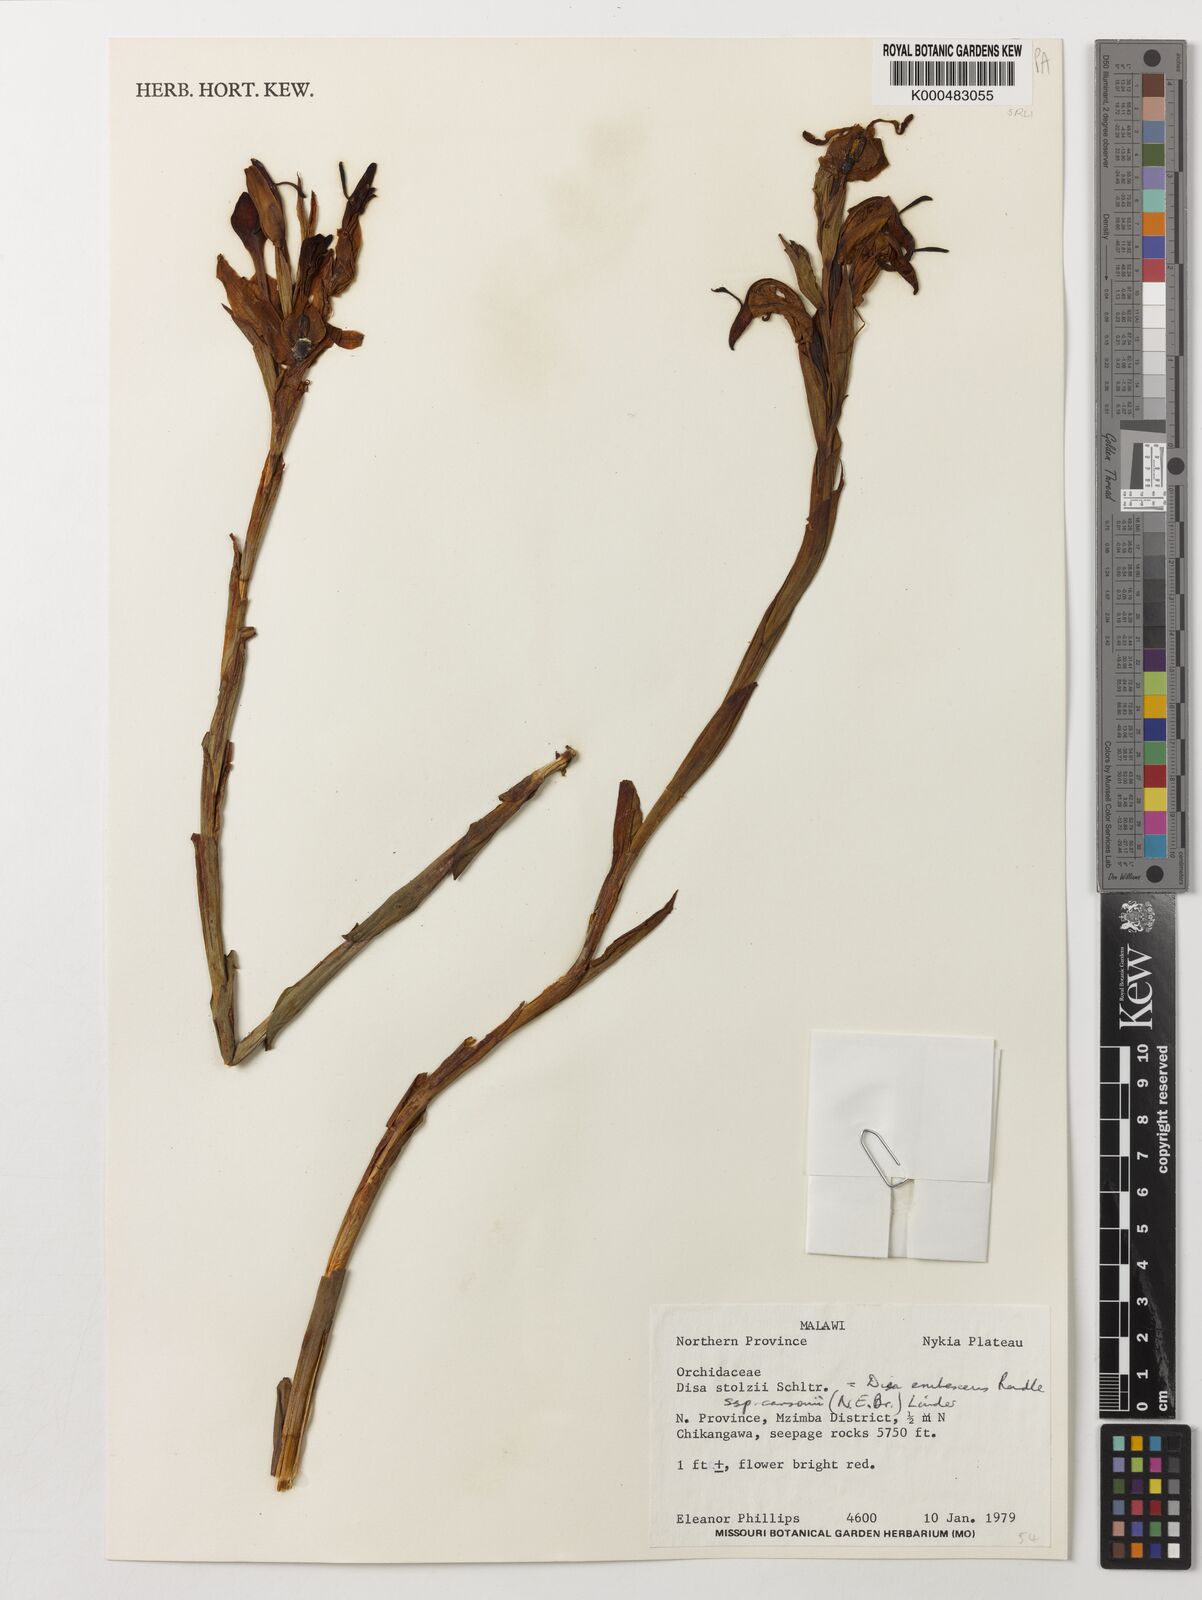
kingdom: Plantae
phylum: Tracheophyta
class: Liliopsida
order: Asparagales
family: Orchidaceae
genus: Disa
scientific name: Disa erubescens
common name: The rose disa
